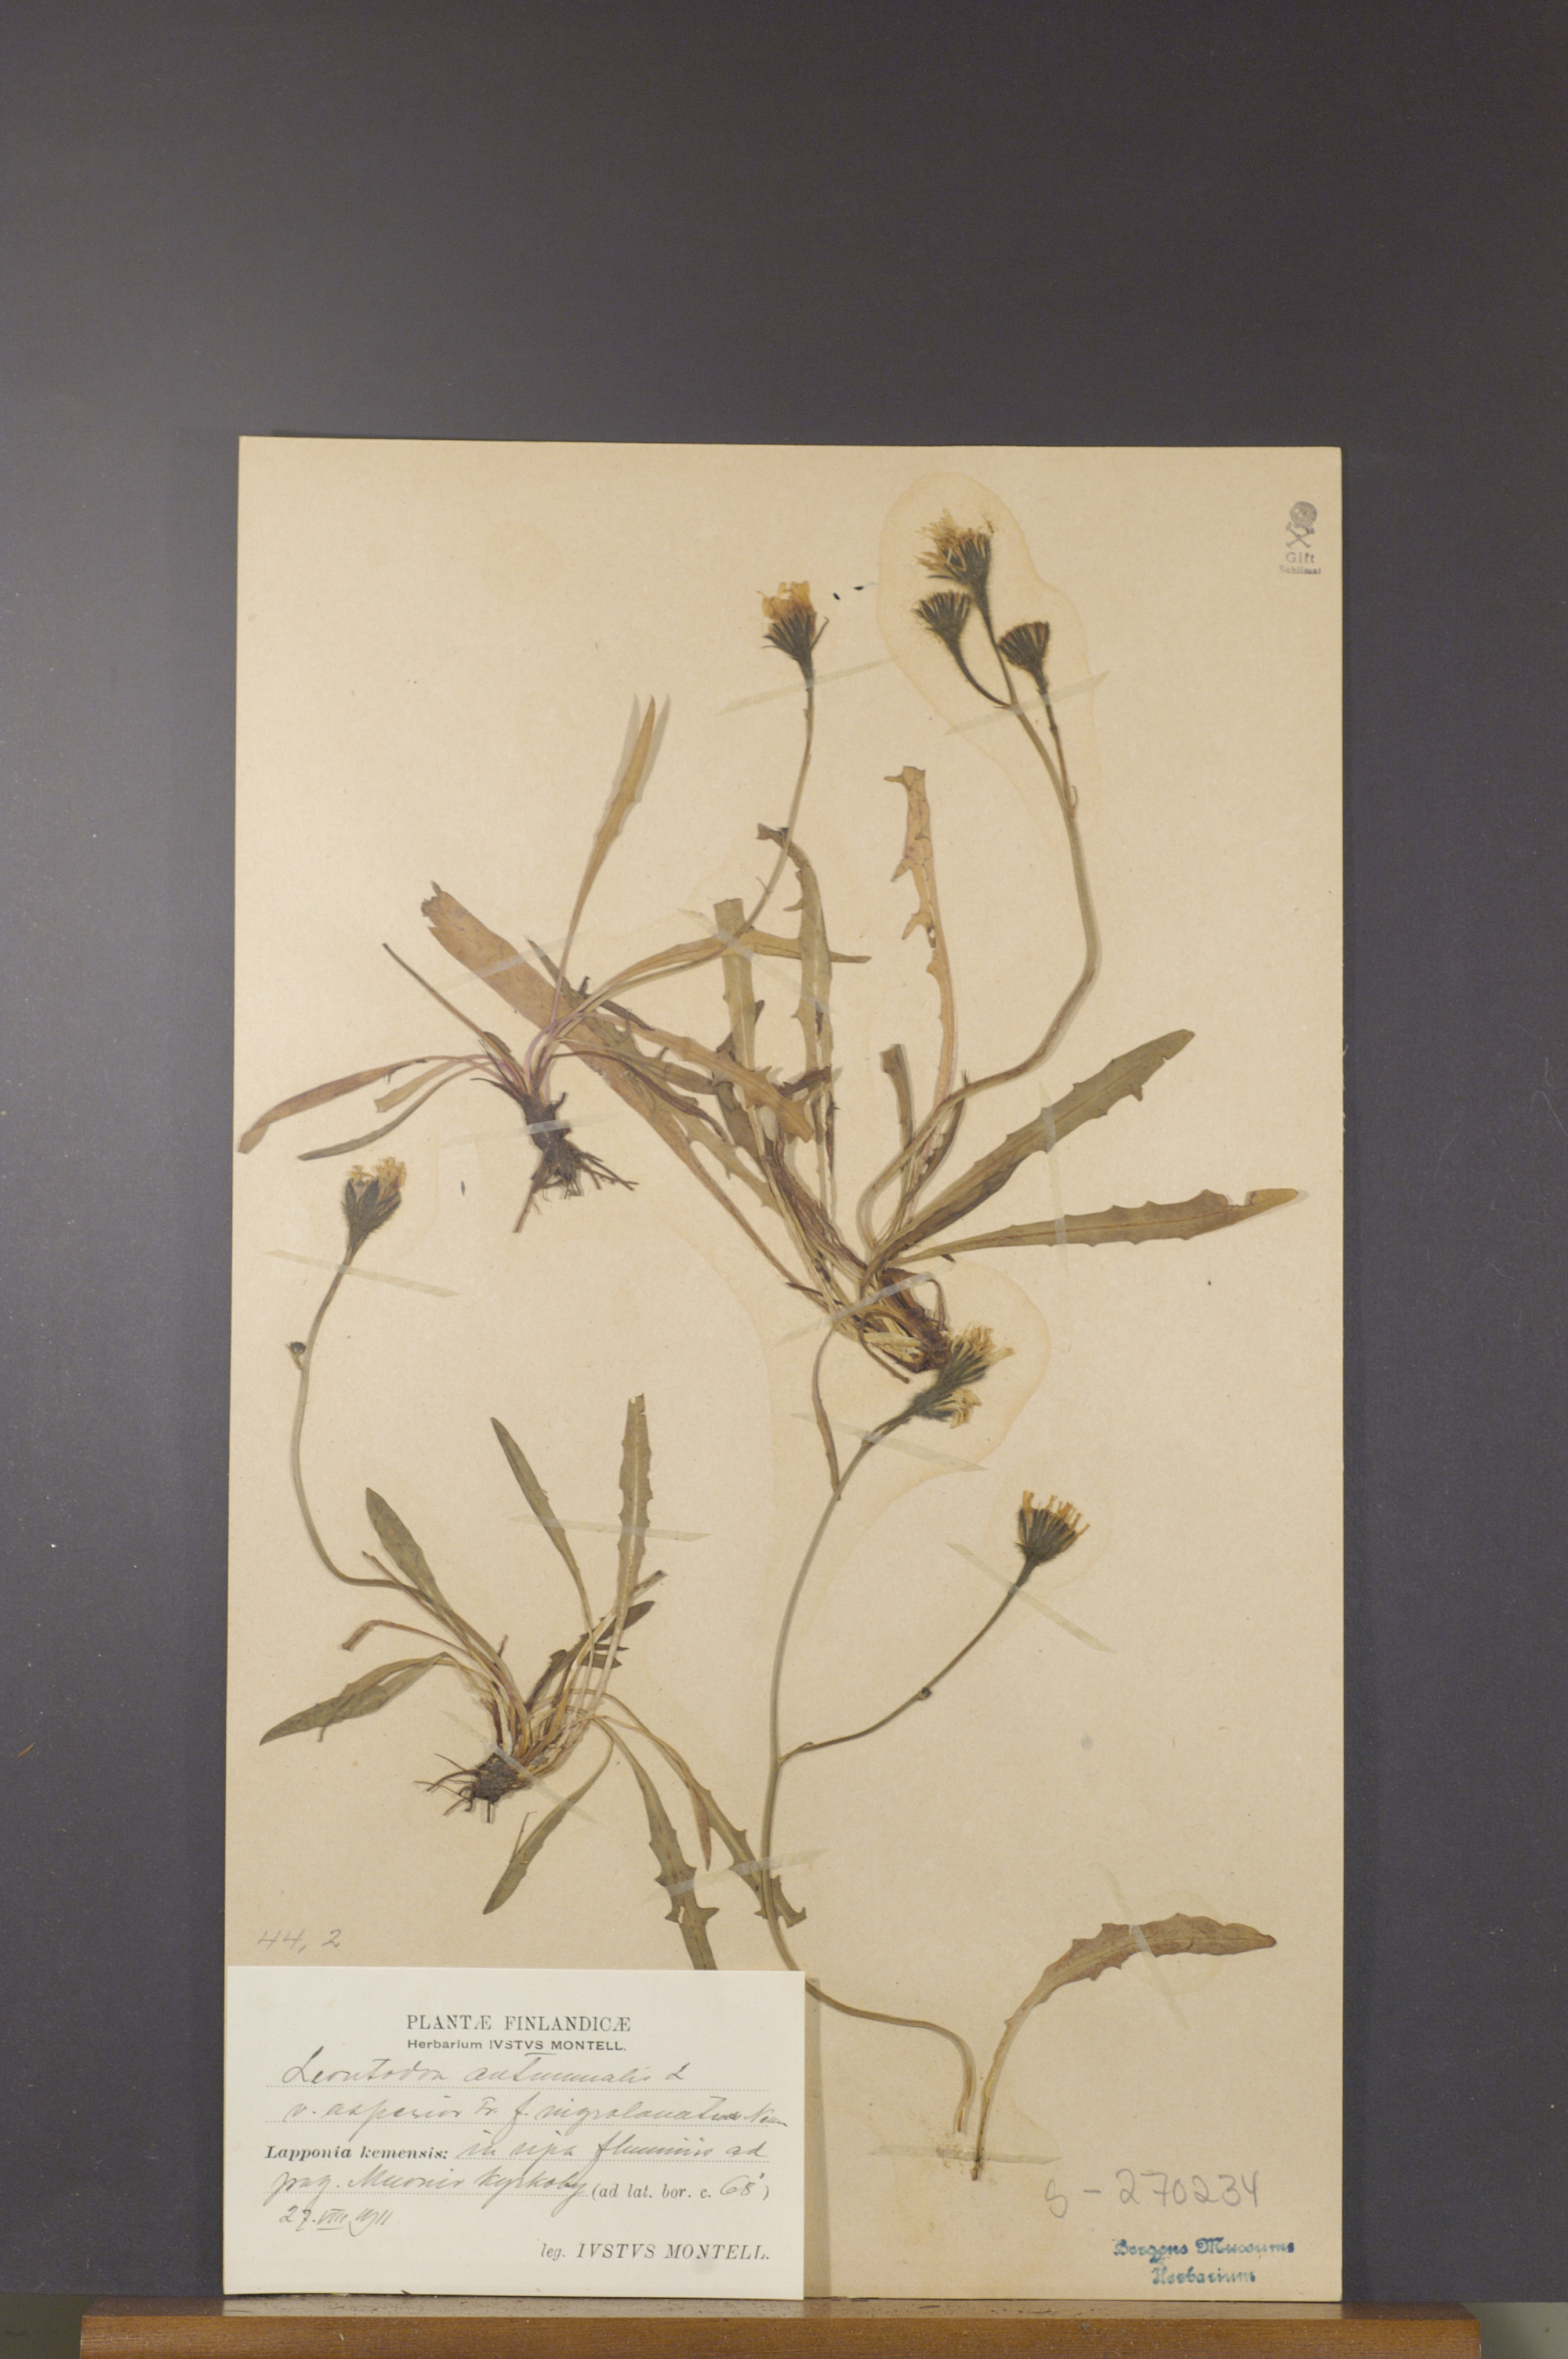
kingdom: Plantae
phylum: Tracheophyta
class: Magnoliopsida
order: Asterales
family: Asteraceae
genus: Scorzoneroides
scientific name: Scorzoneroides autumnalis
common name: Autumn hawkbit
